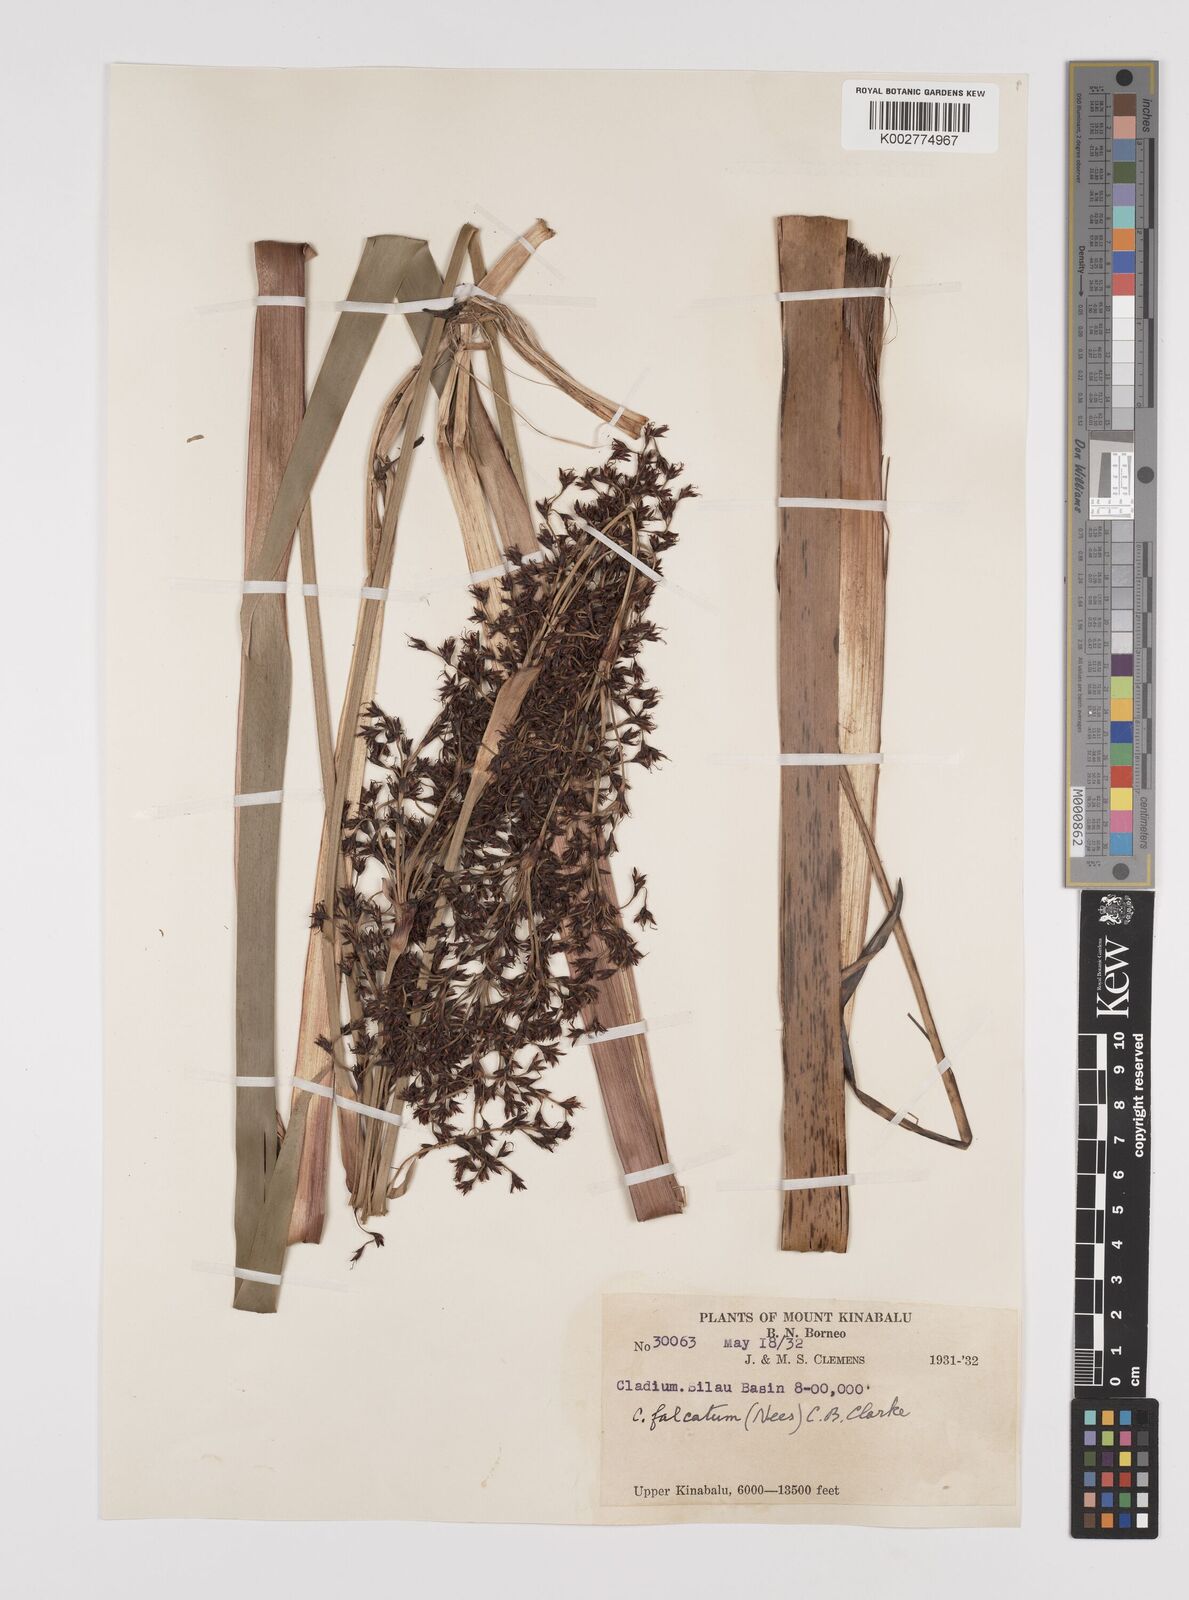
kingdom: Plantae
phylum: Tracheophyta
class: Liliopsida
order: Poales
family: Cyperaceae
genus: Machaerina
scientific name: Machaerina falcata
